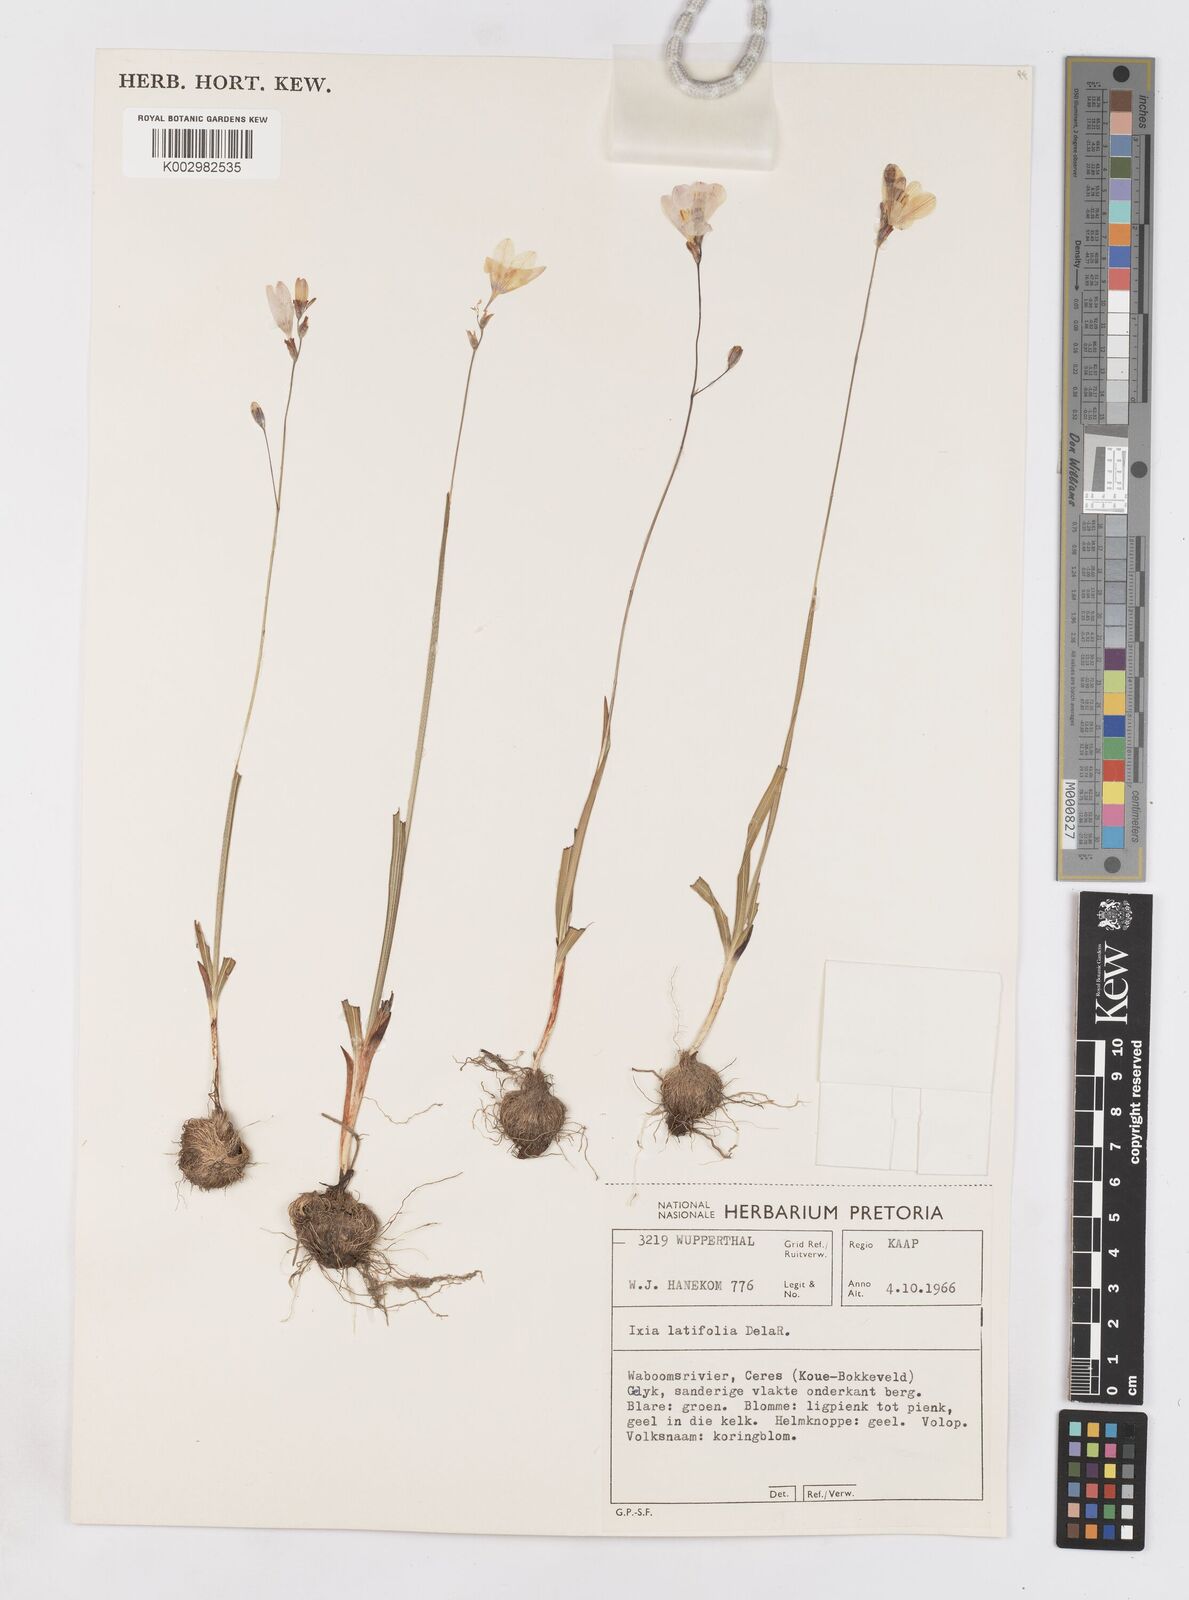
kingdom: Plantae
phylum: Tracheophyta
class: Liliopsida
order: Asparagales
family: Iridaceae
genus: Ixia
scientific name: Ixia latifolia
